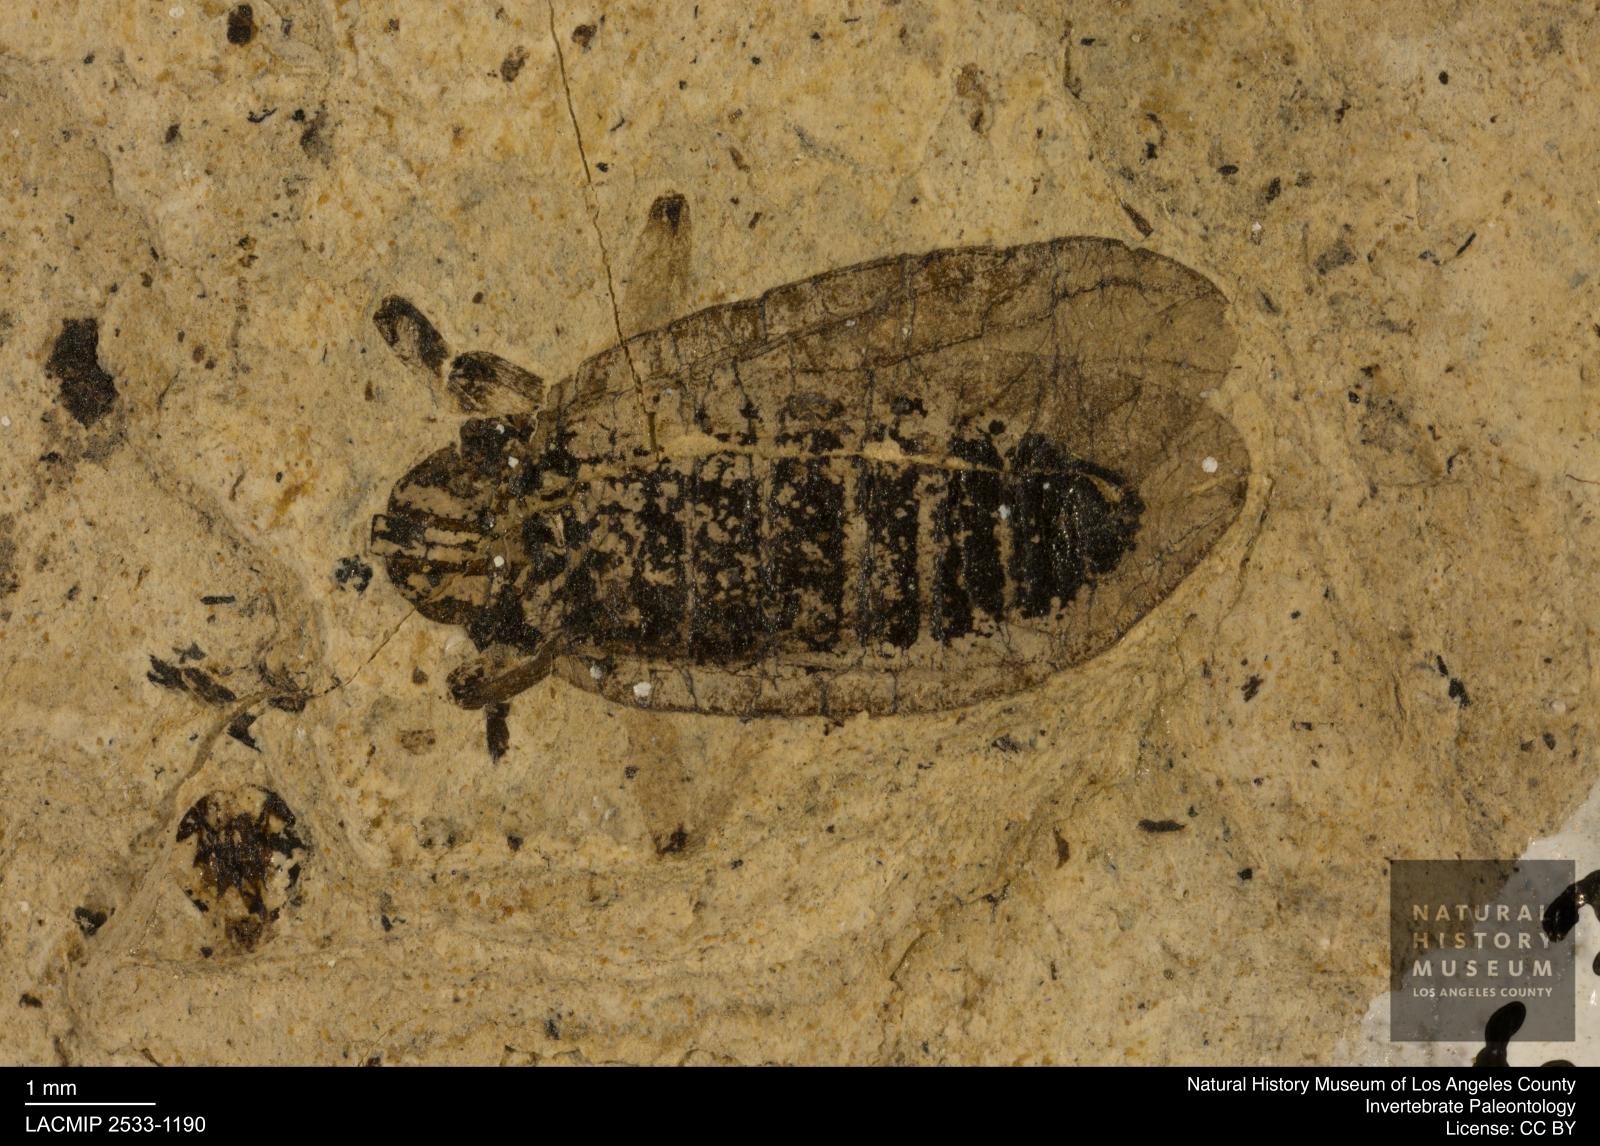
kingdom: Animalia
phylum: Arthropoda
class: Insecta
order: Diptera
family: Bibionidae
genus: Plecia
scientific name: Plecia pinguis
